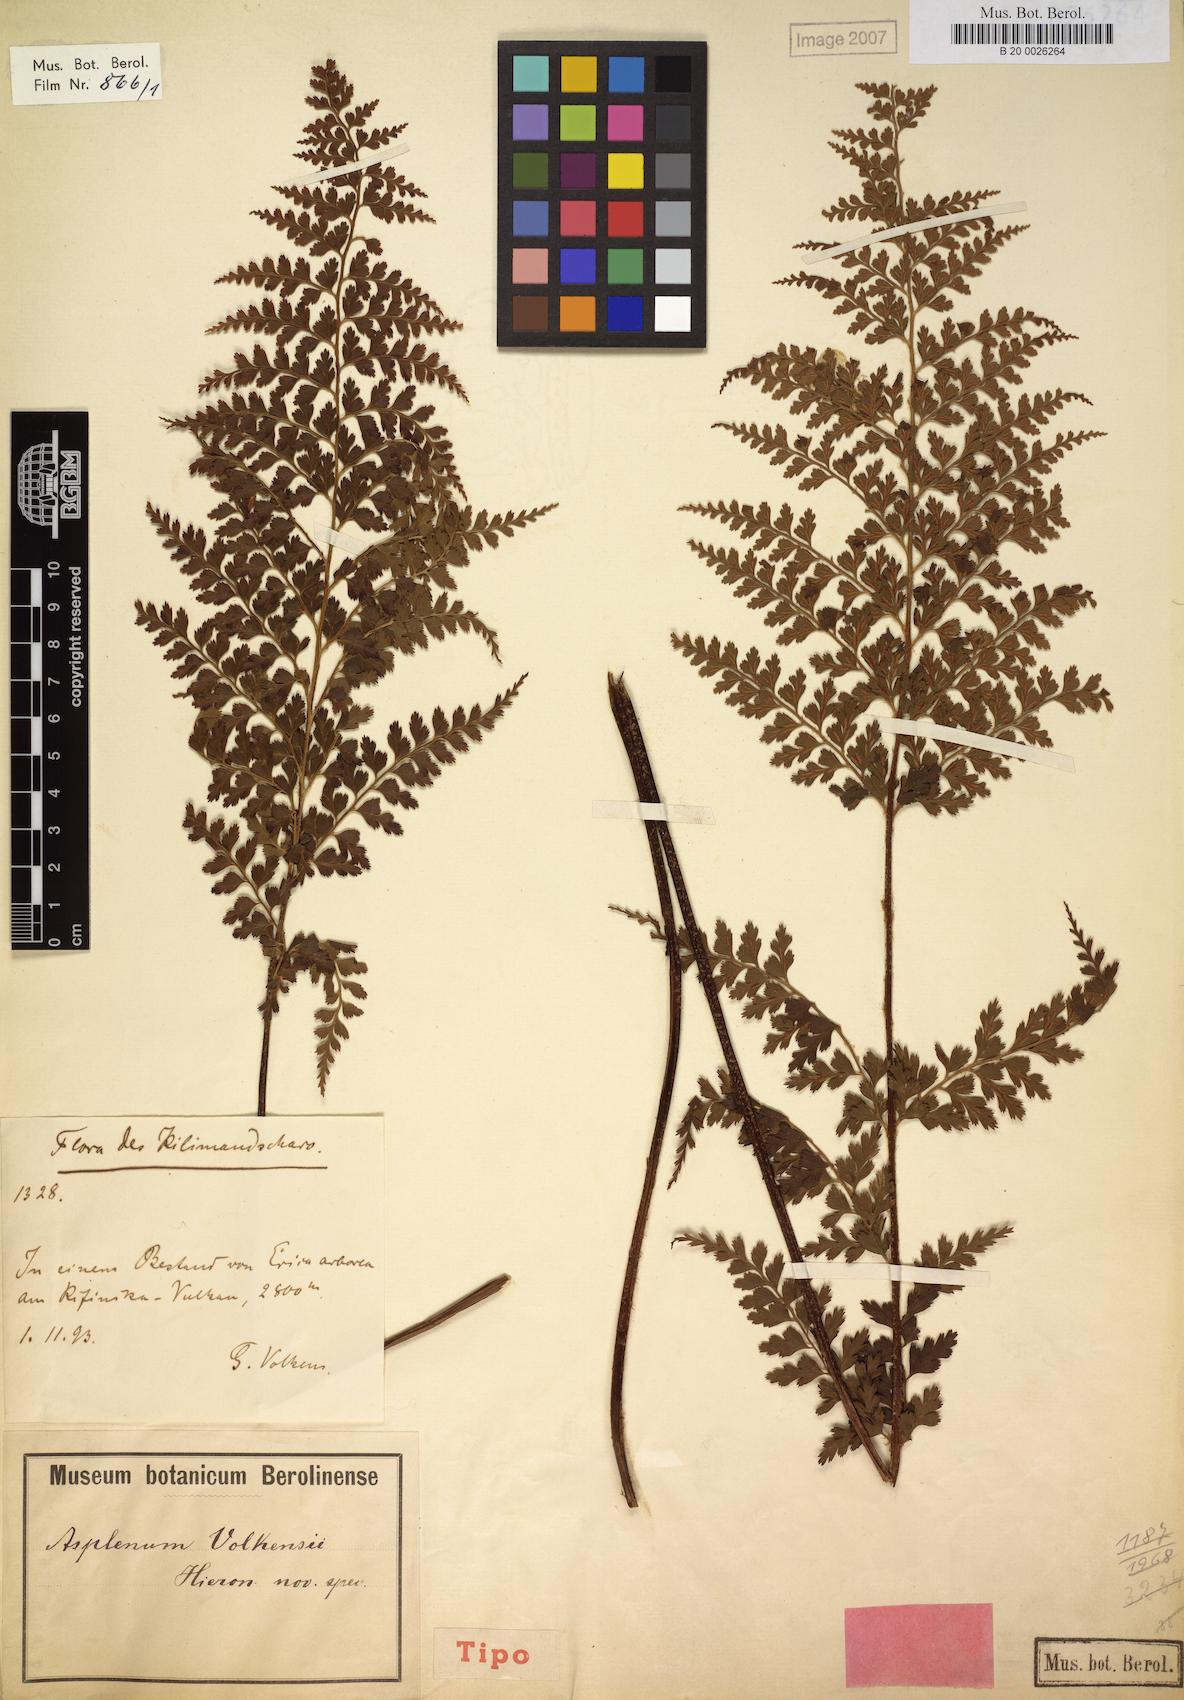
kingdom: Plantae
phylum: Tracheophyta
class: Polypodiopsida
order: Polypodiales
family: Aspleniaceae
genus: Asplenium
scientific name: Asplenium volkensii
